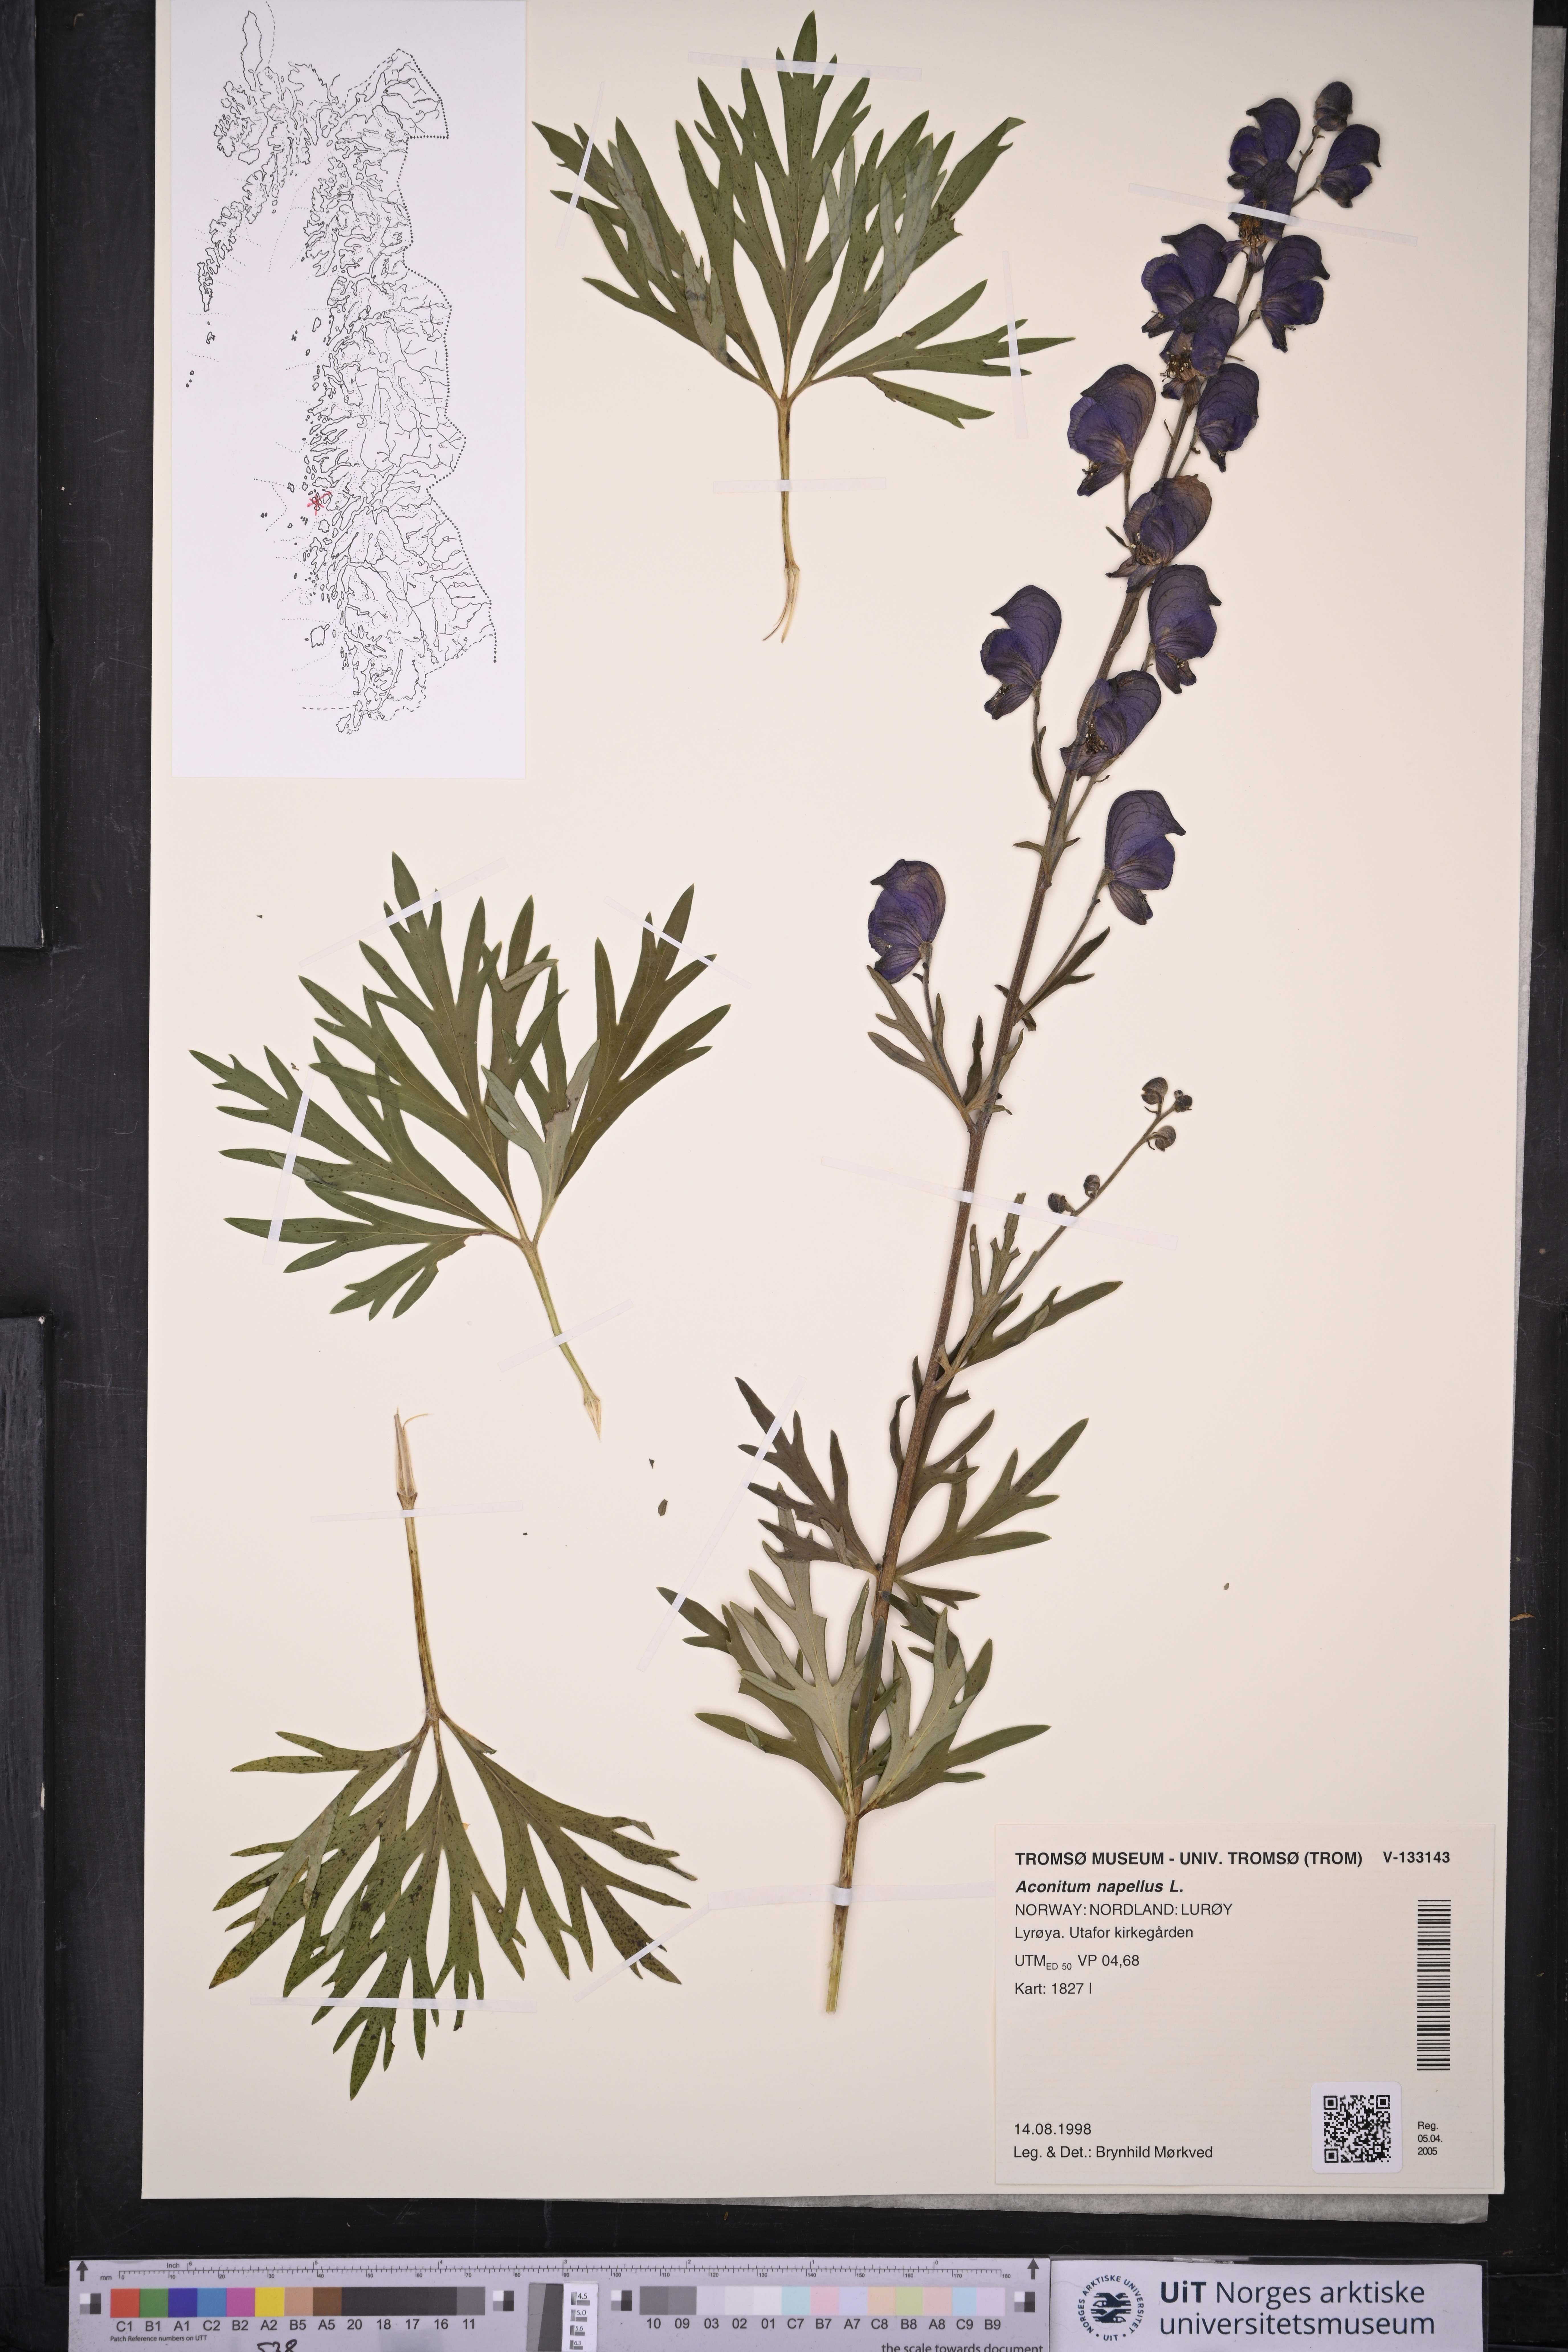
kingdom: Plantae
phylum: Tracheophyta
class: Magnoliopsida
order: Ranunculales
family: Ranunculaceae
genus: Aconitum
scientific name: Aconitum napellus
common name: Garden monkshood
